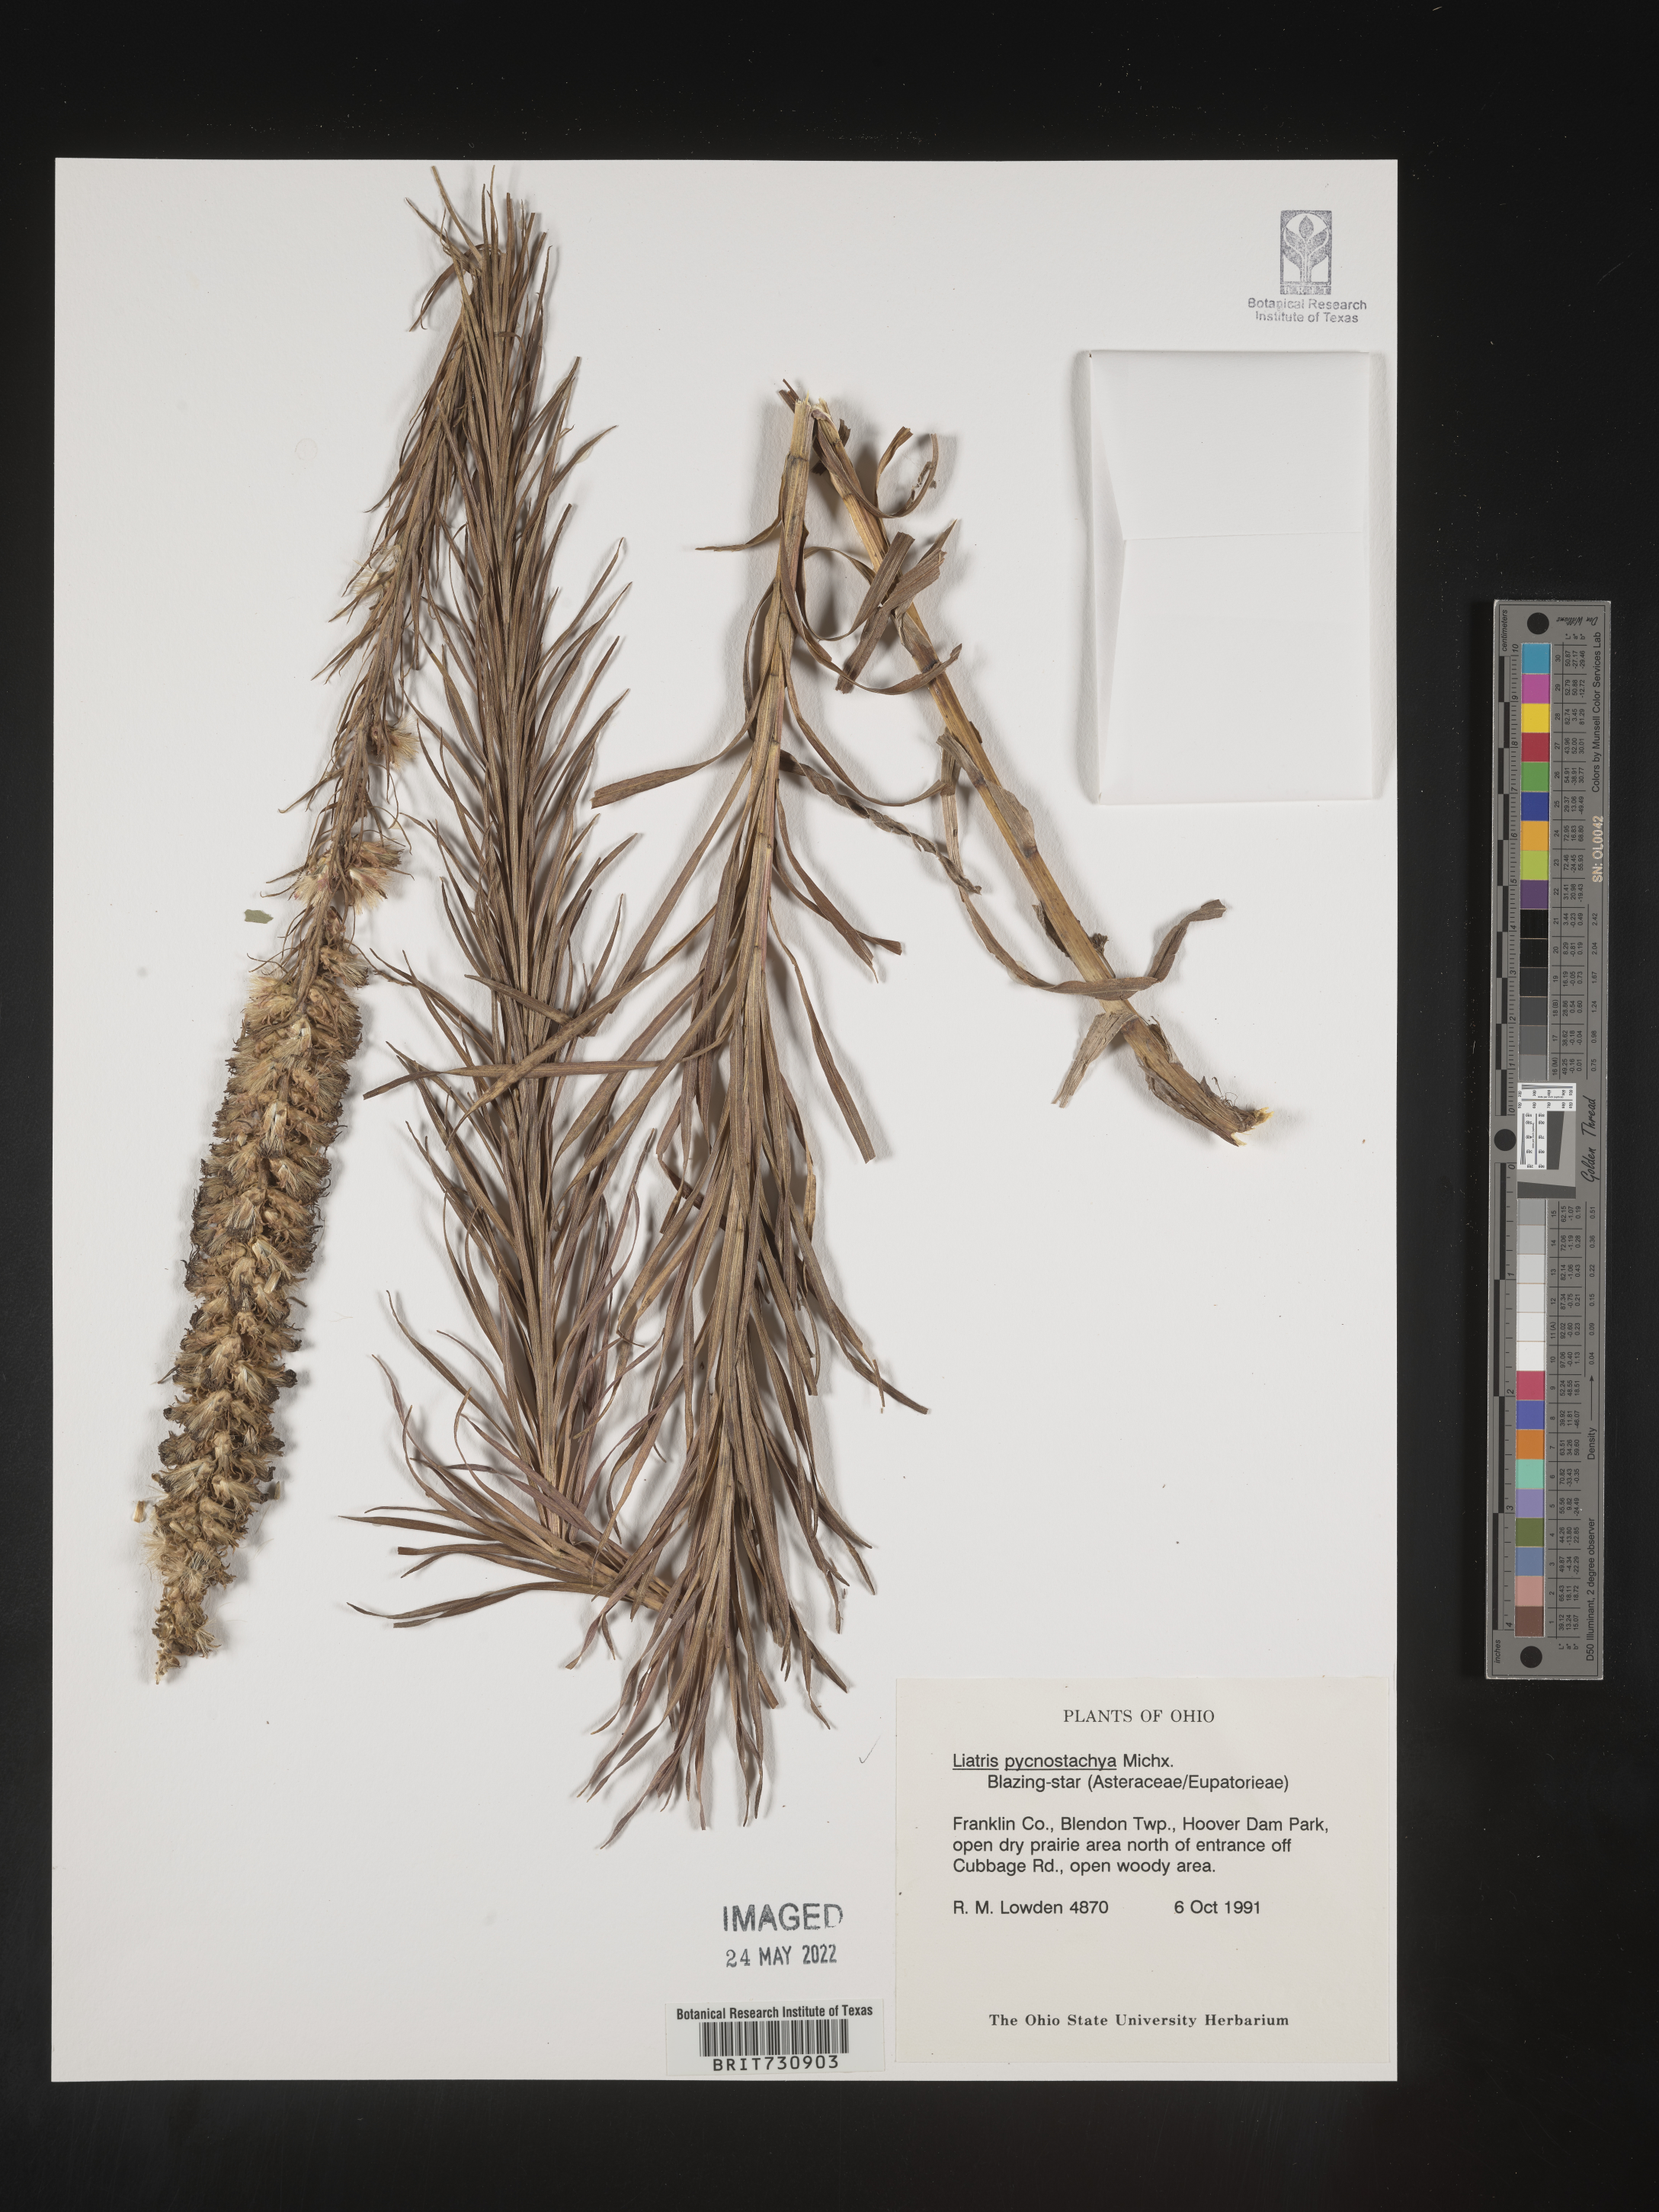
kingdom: Plantae
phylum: Tracheophyta
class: Magnoliopsida
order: Asterales
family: Asteraceae
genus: Liatris
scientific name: Liatris pycnostachya
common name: Cattail gayfeather
